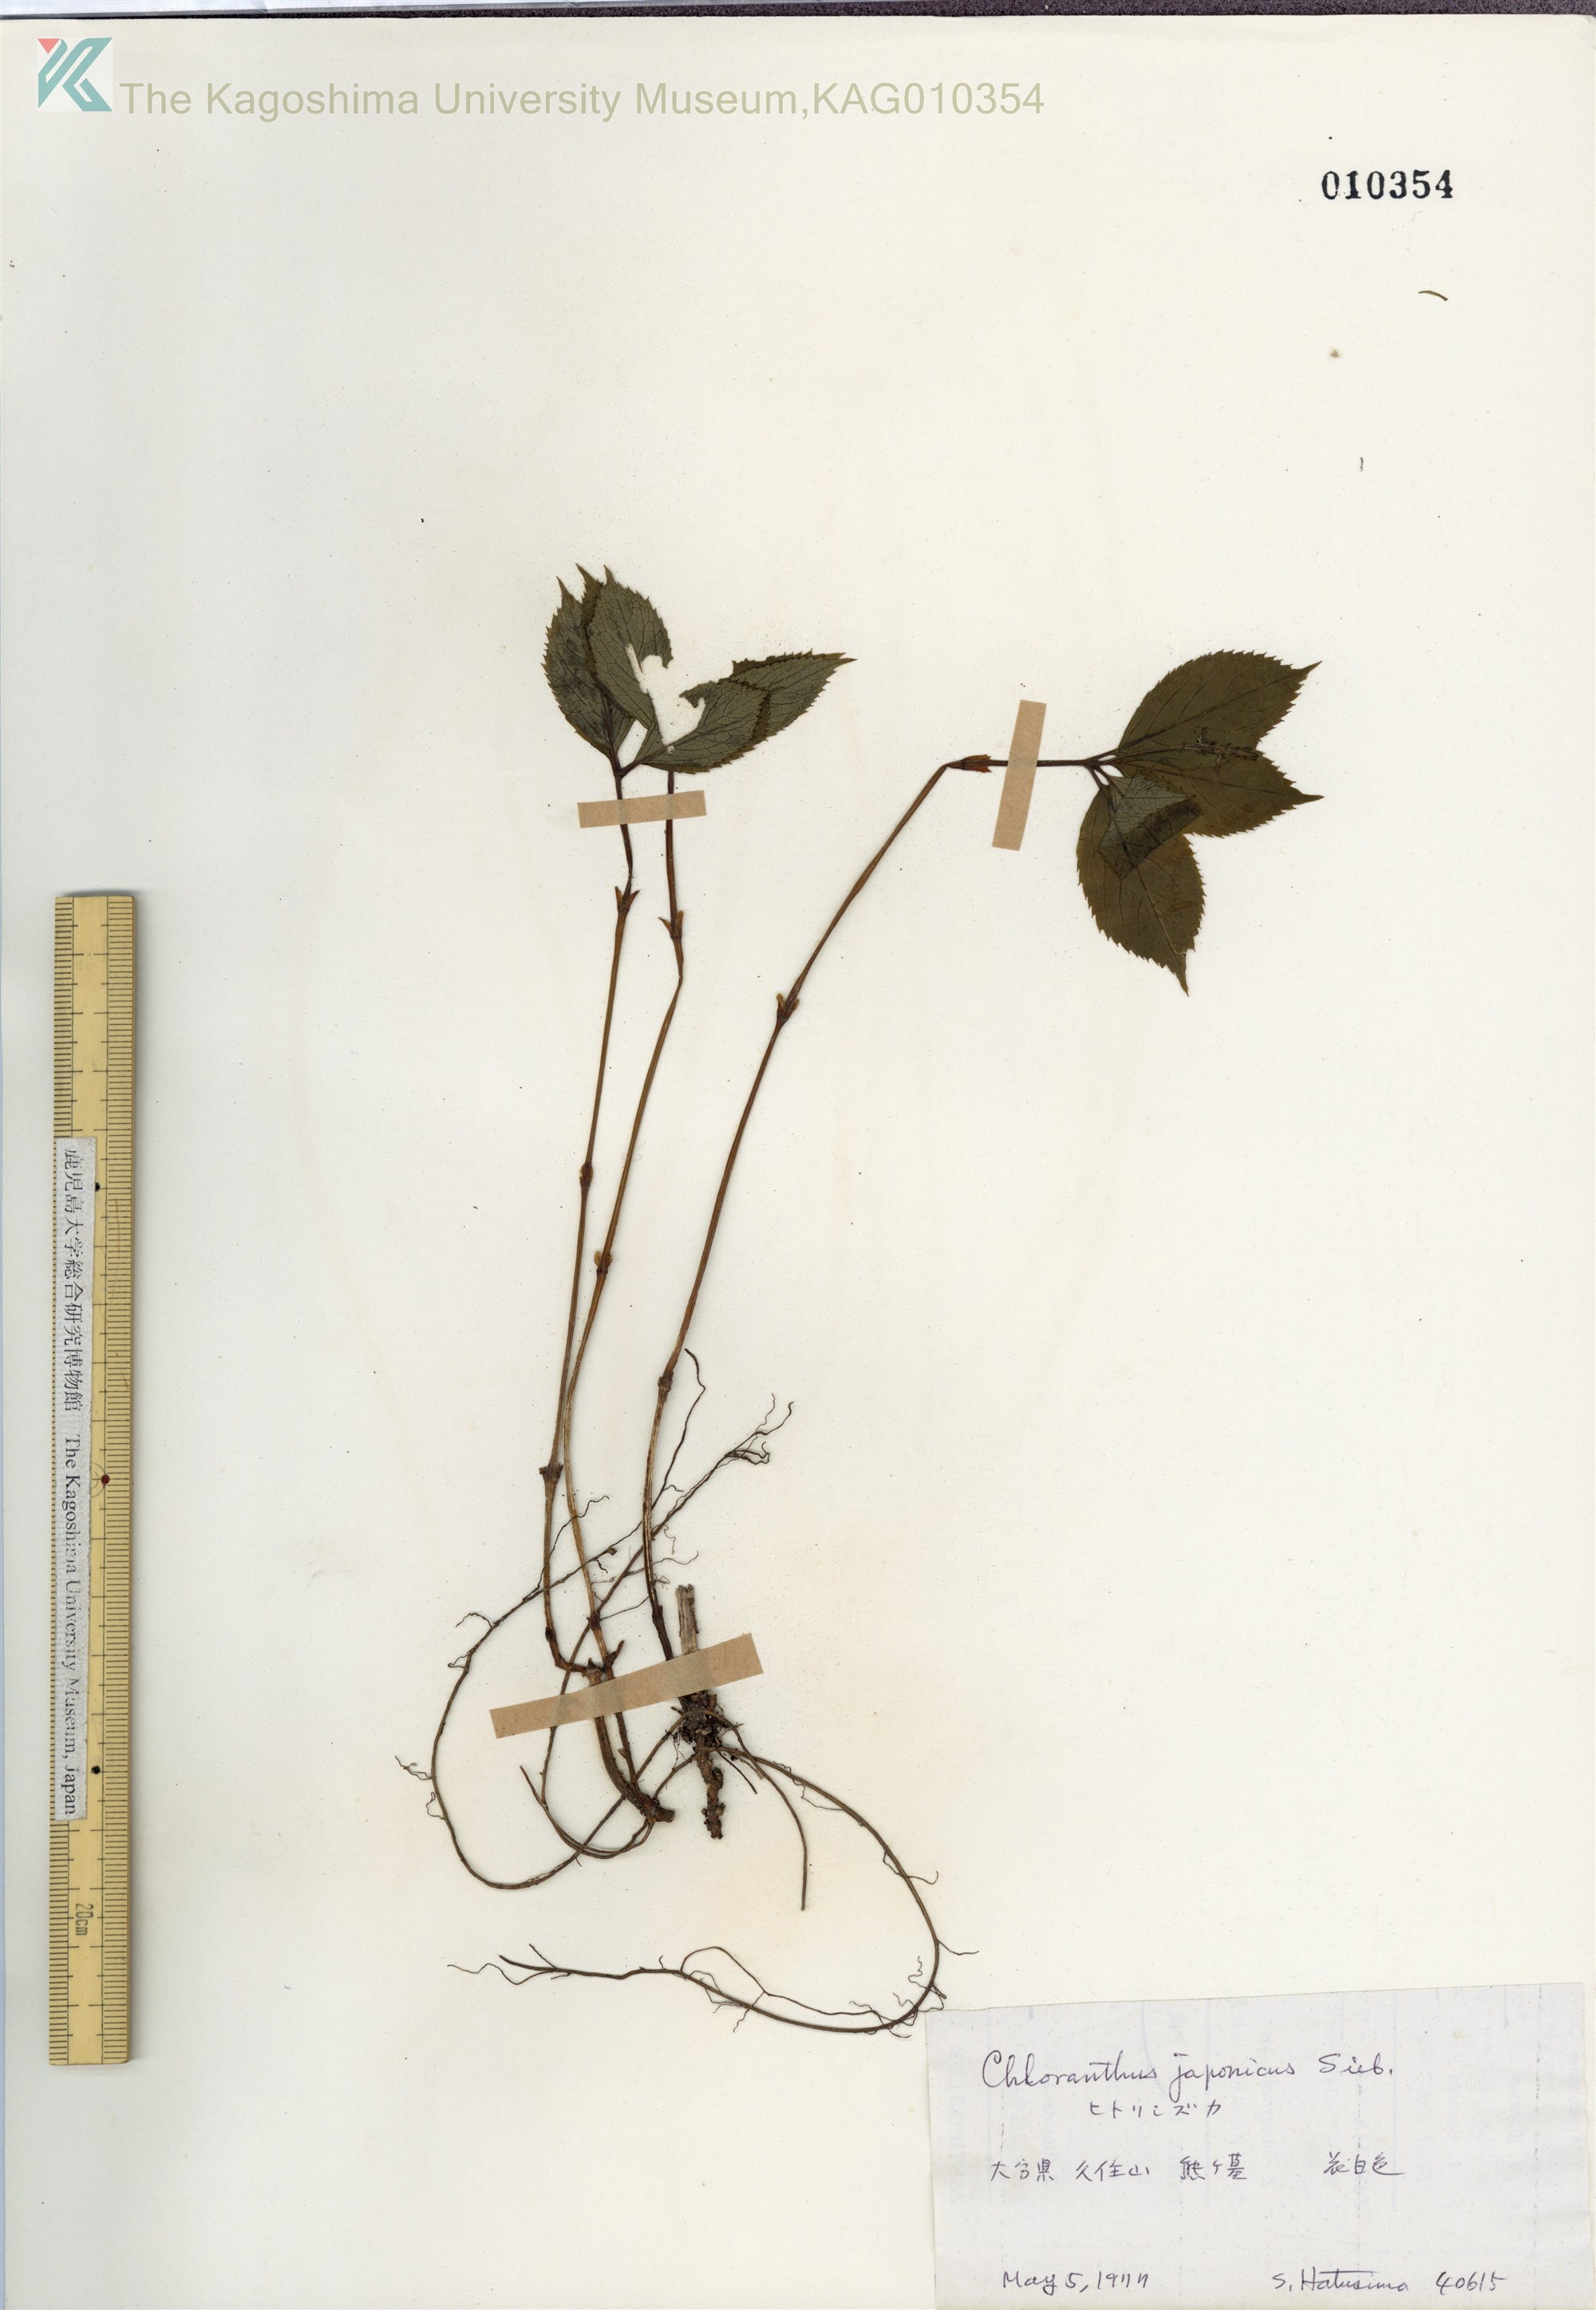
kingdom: Plantae
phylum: Tracheophyta
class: Magnoliopsida
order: Chloranthales
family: Chloranthaceae
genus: Chloranthus
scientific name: Chloranthus japonicus
